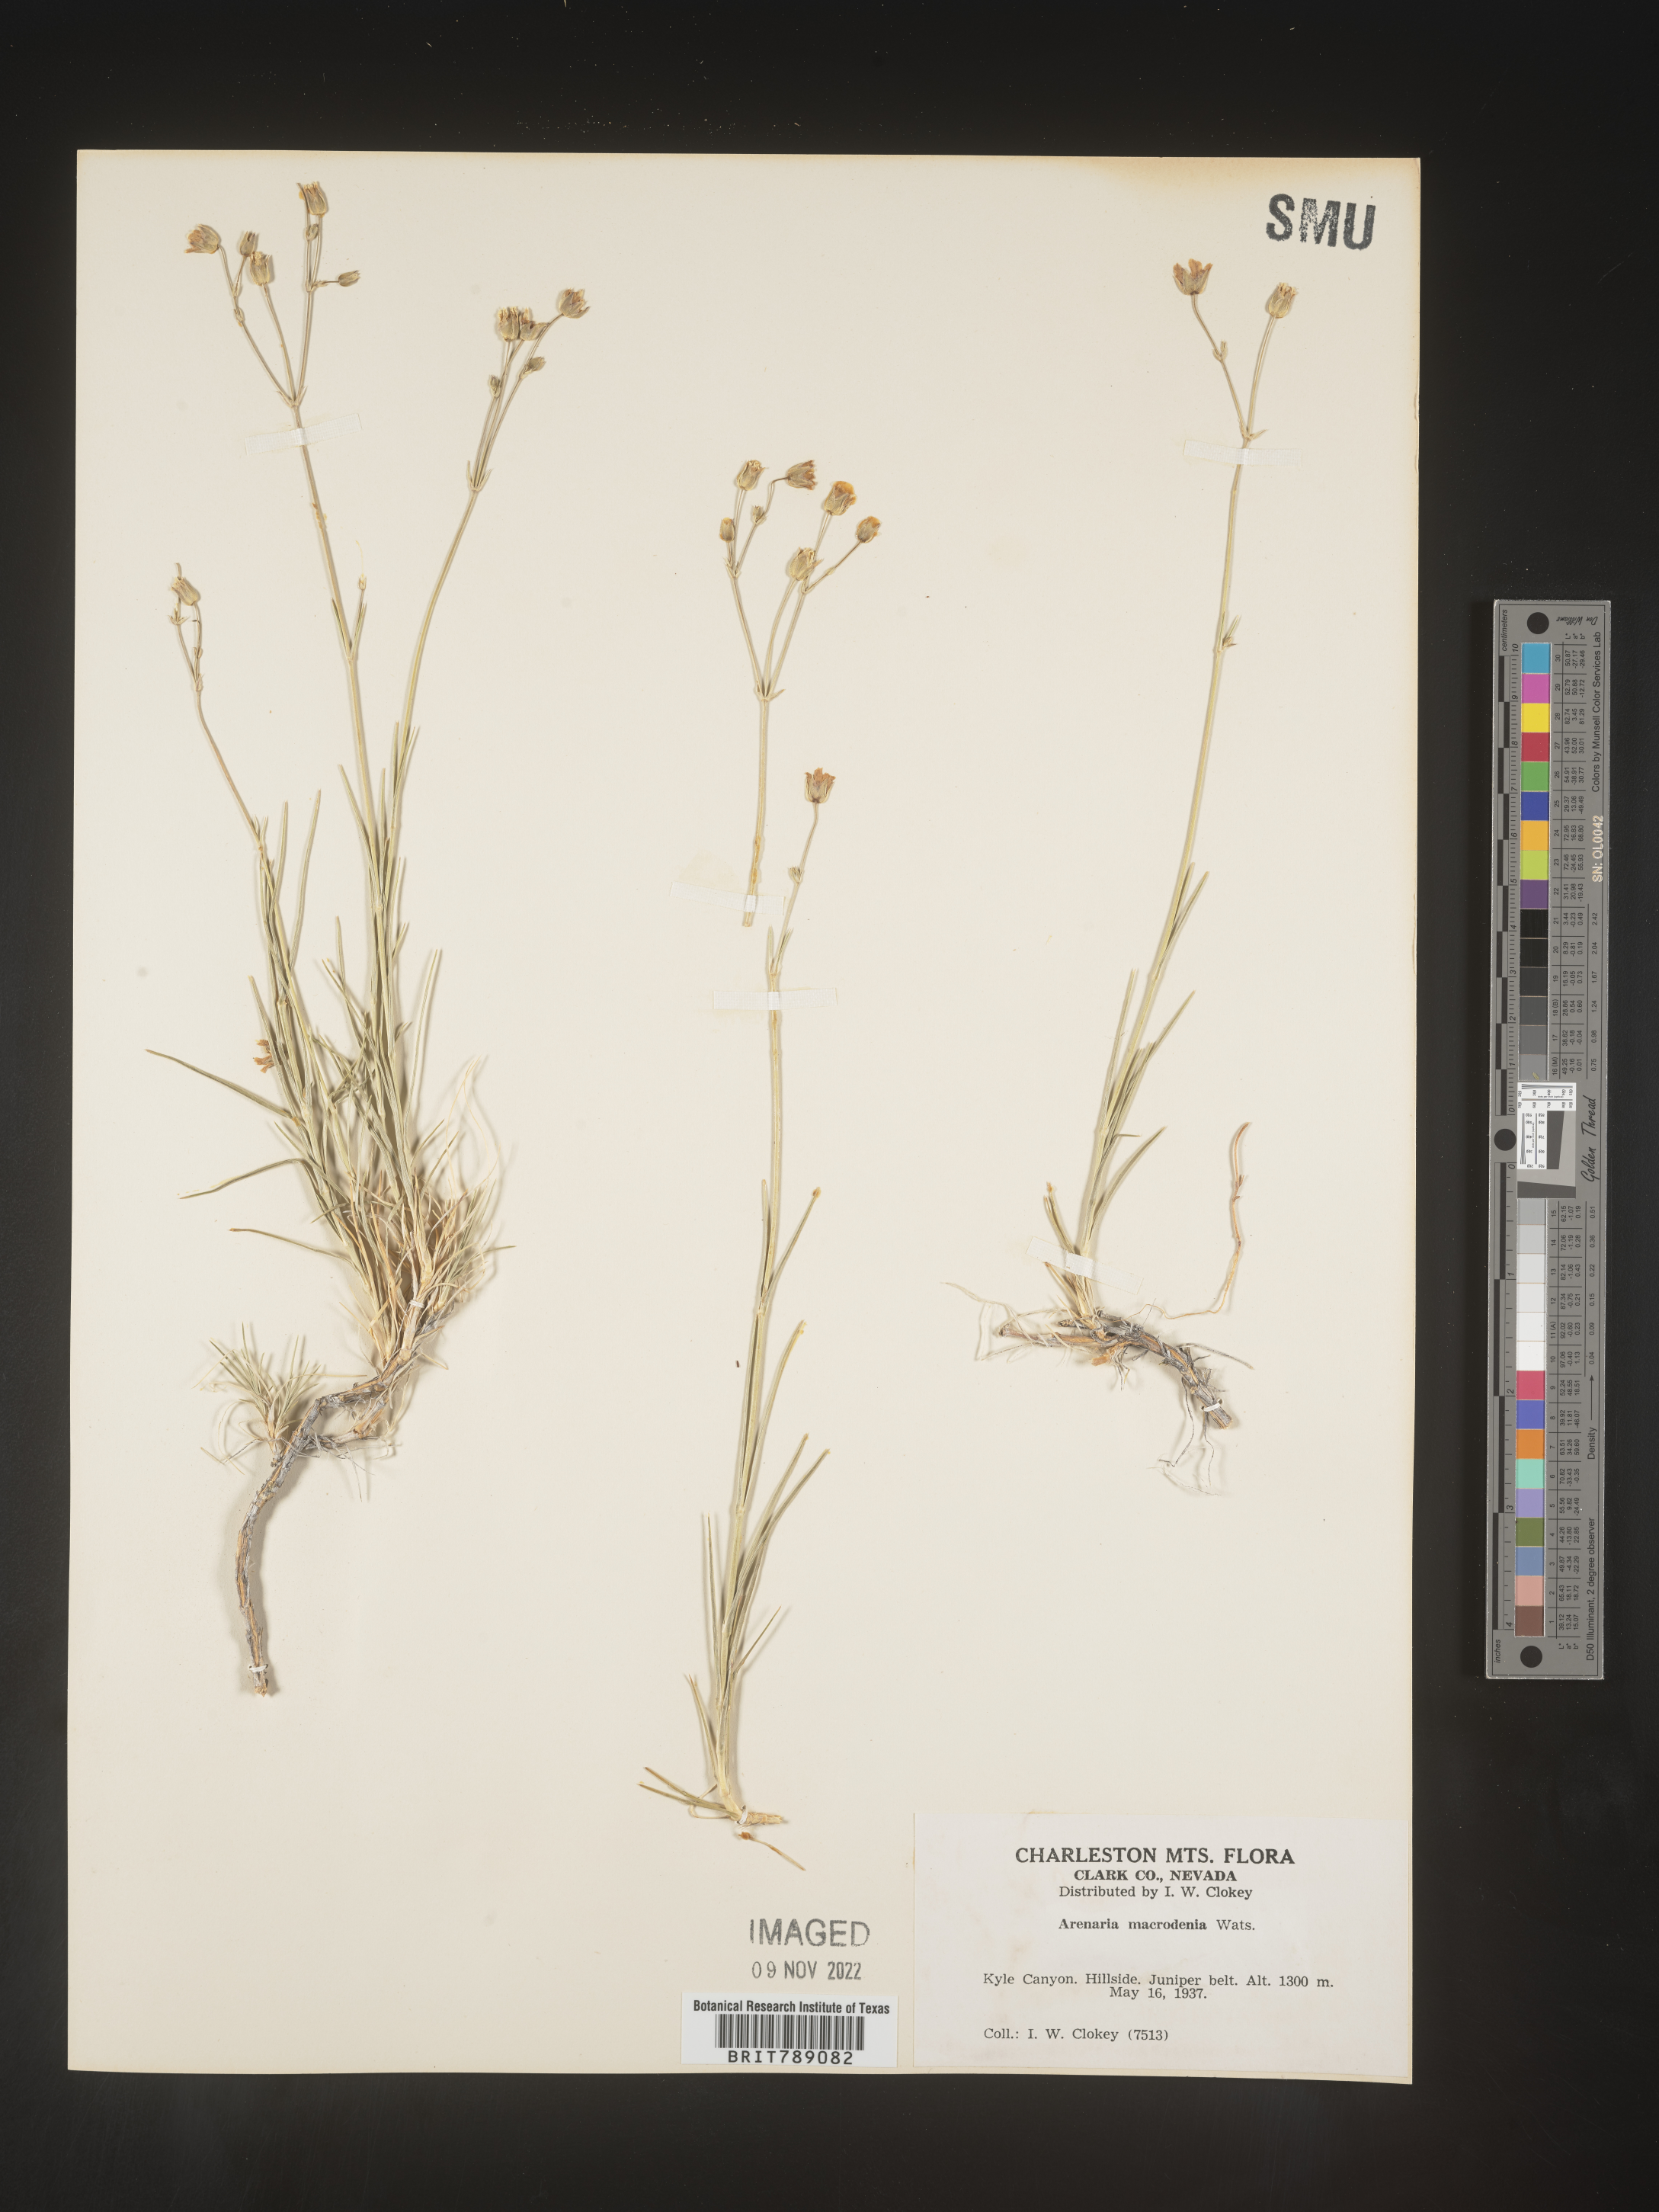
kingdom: Plantae
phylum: Tracheophyta
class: Magnoliopsida
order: Caryophyllales
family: Caryophyllaceae
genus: Arenaria
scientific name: Arenaria
